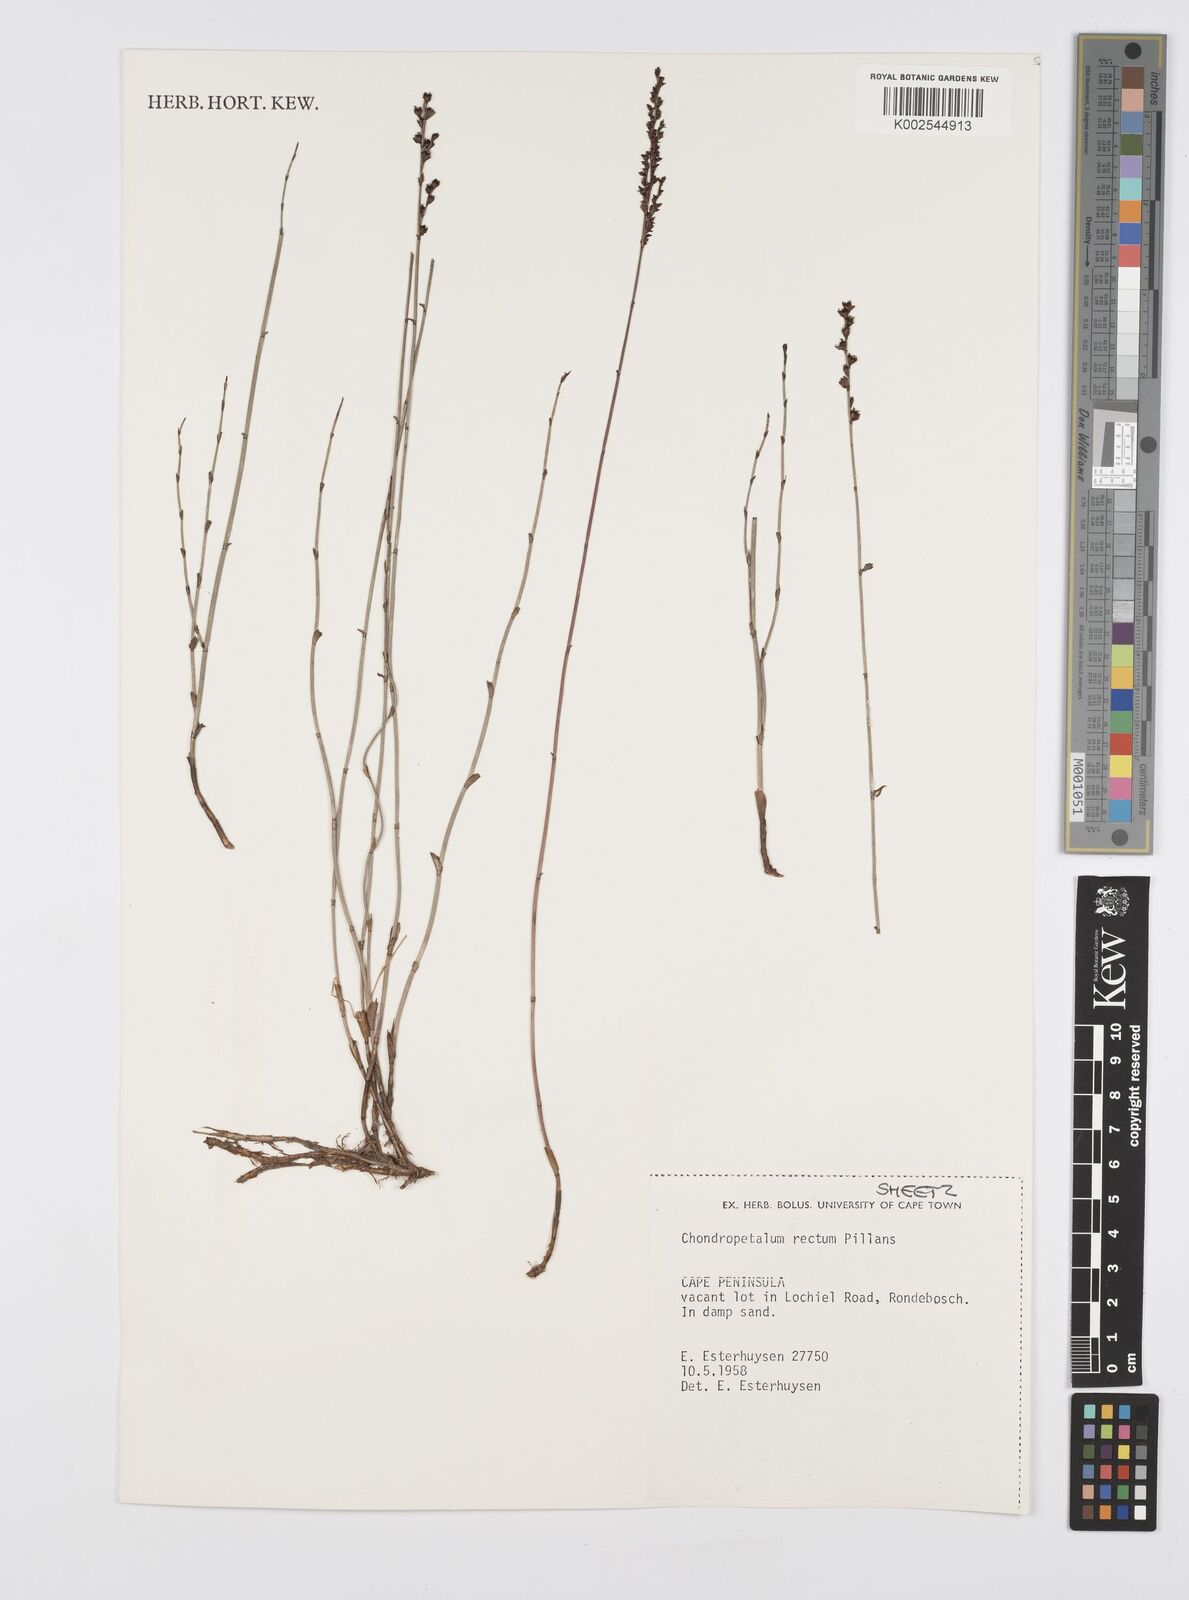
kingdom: Plantae
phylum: Tracheophyta
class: Liliopsida
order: Poales
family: Restionaceae
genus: Elegia
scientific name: Elegia recta
